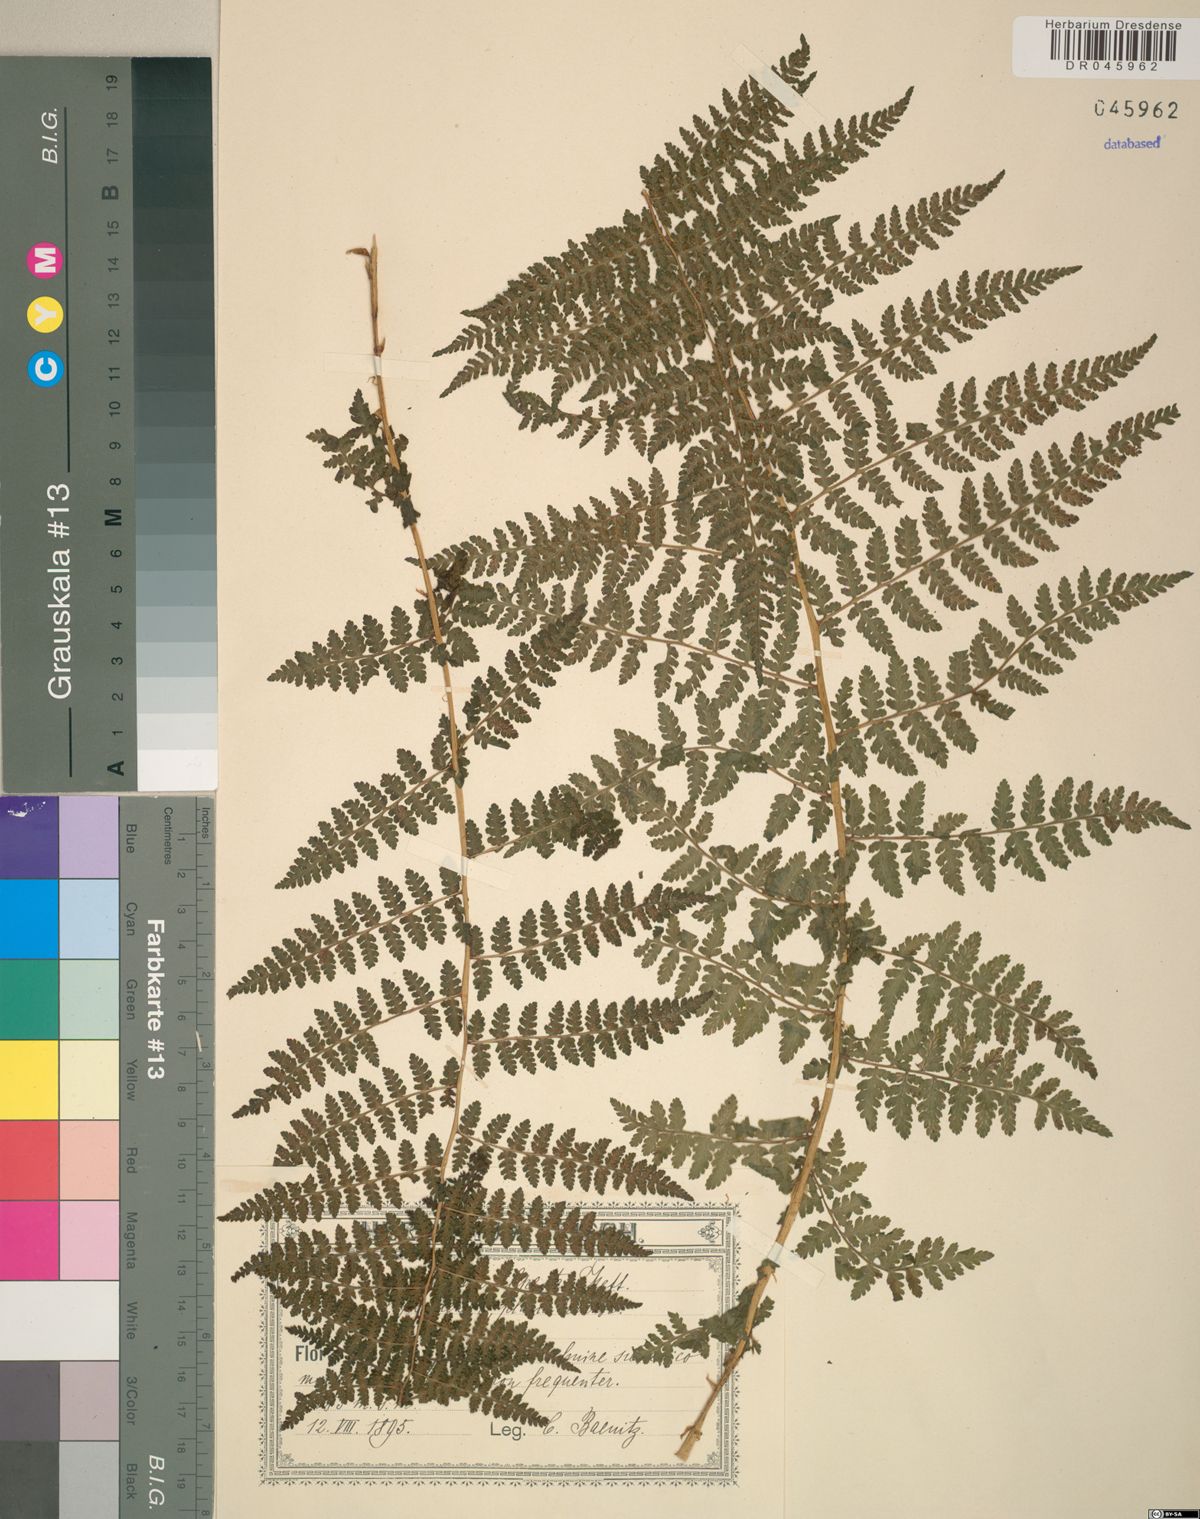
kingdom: Plantae
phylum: Tracheophyta
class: Polypodiopsida
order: Polypodiales
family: Athyriaceae
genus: Diplazium
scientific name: Diplazium pallidum
